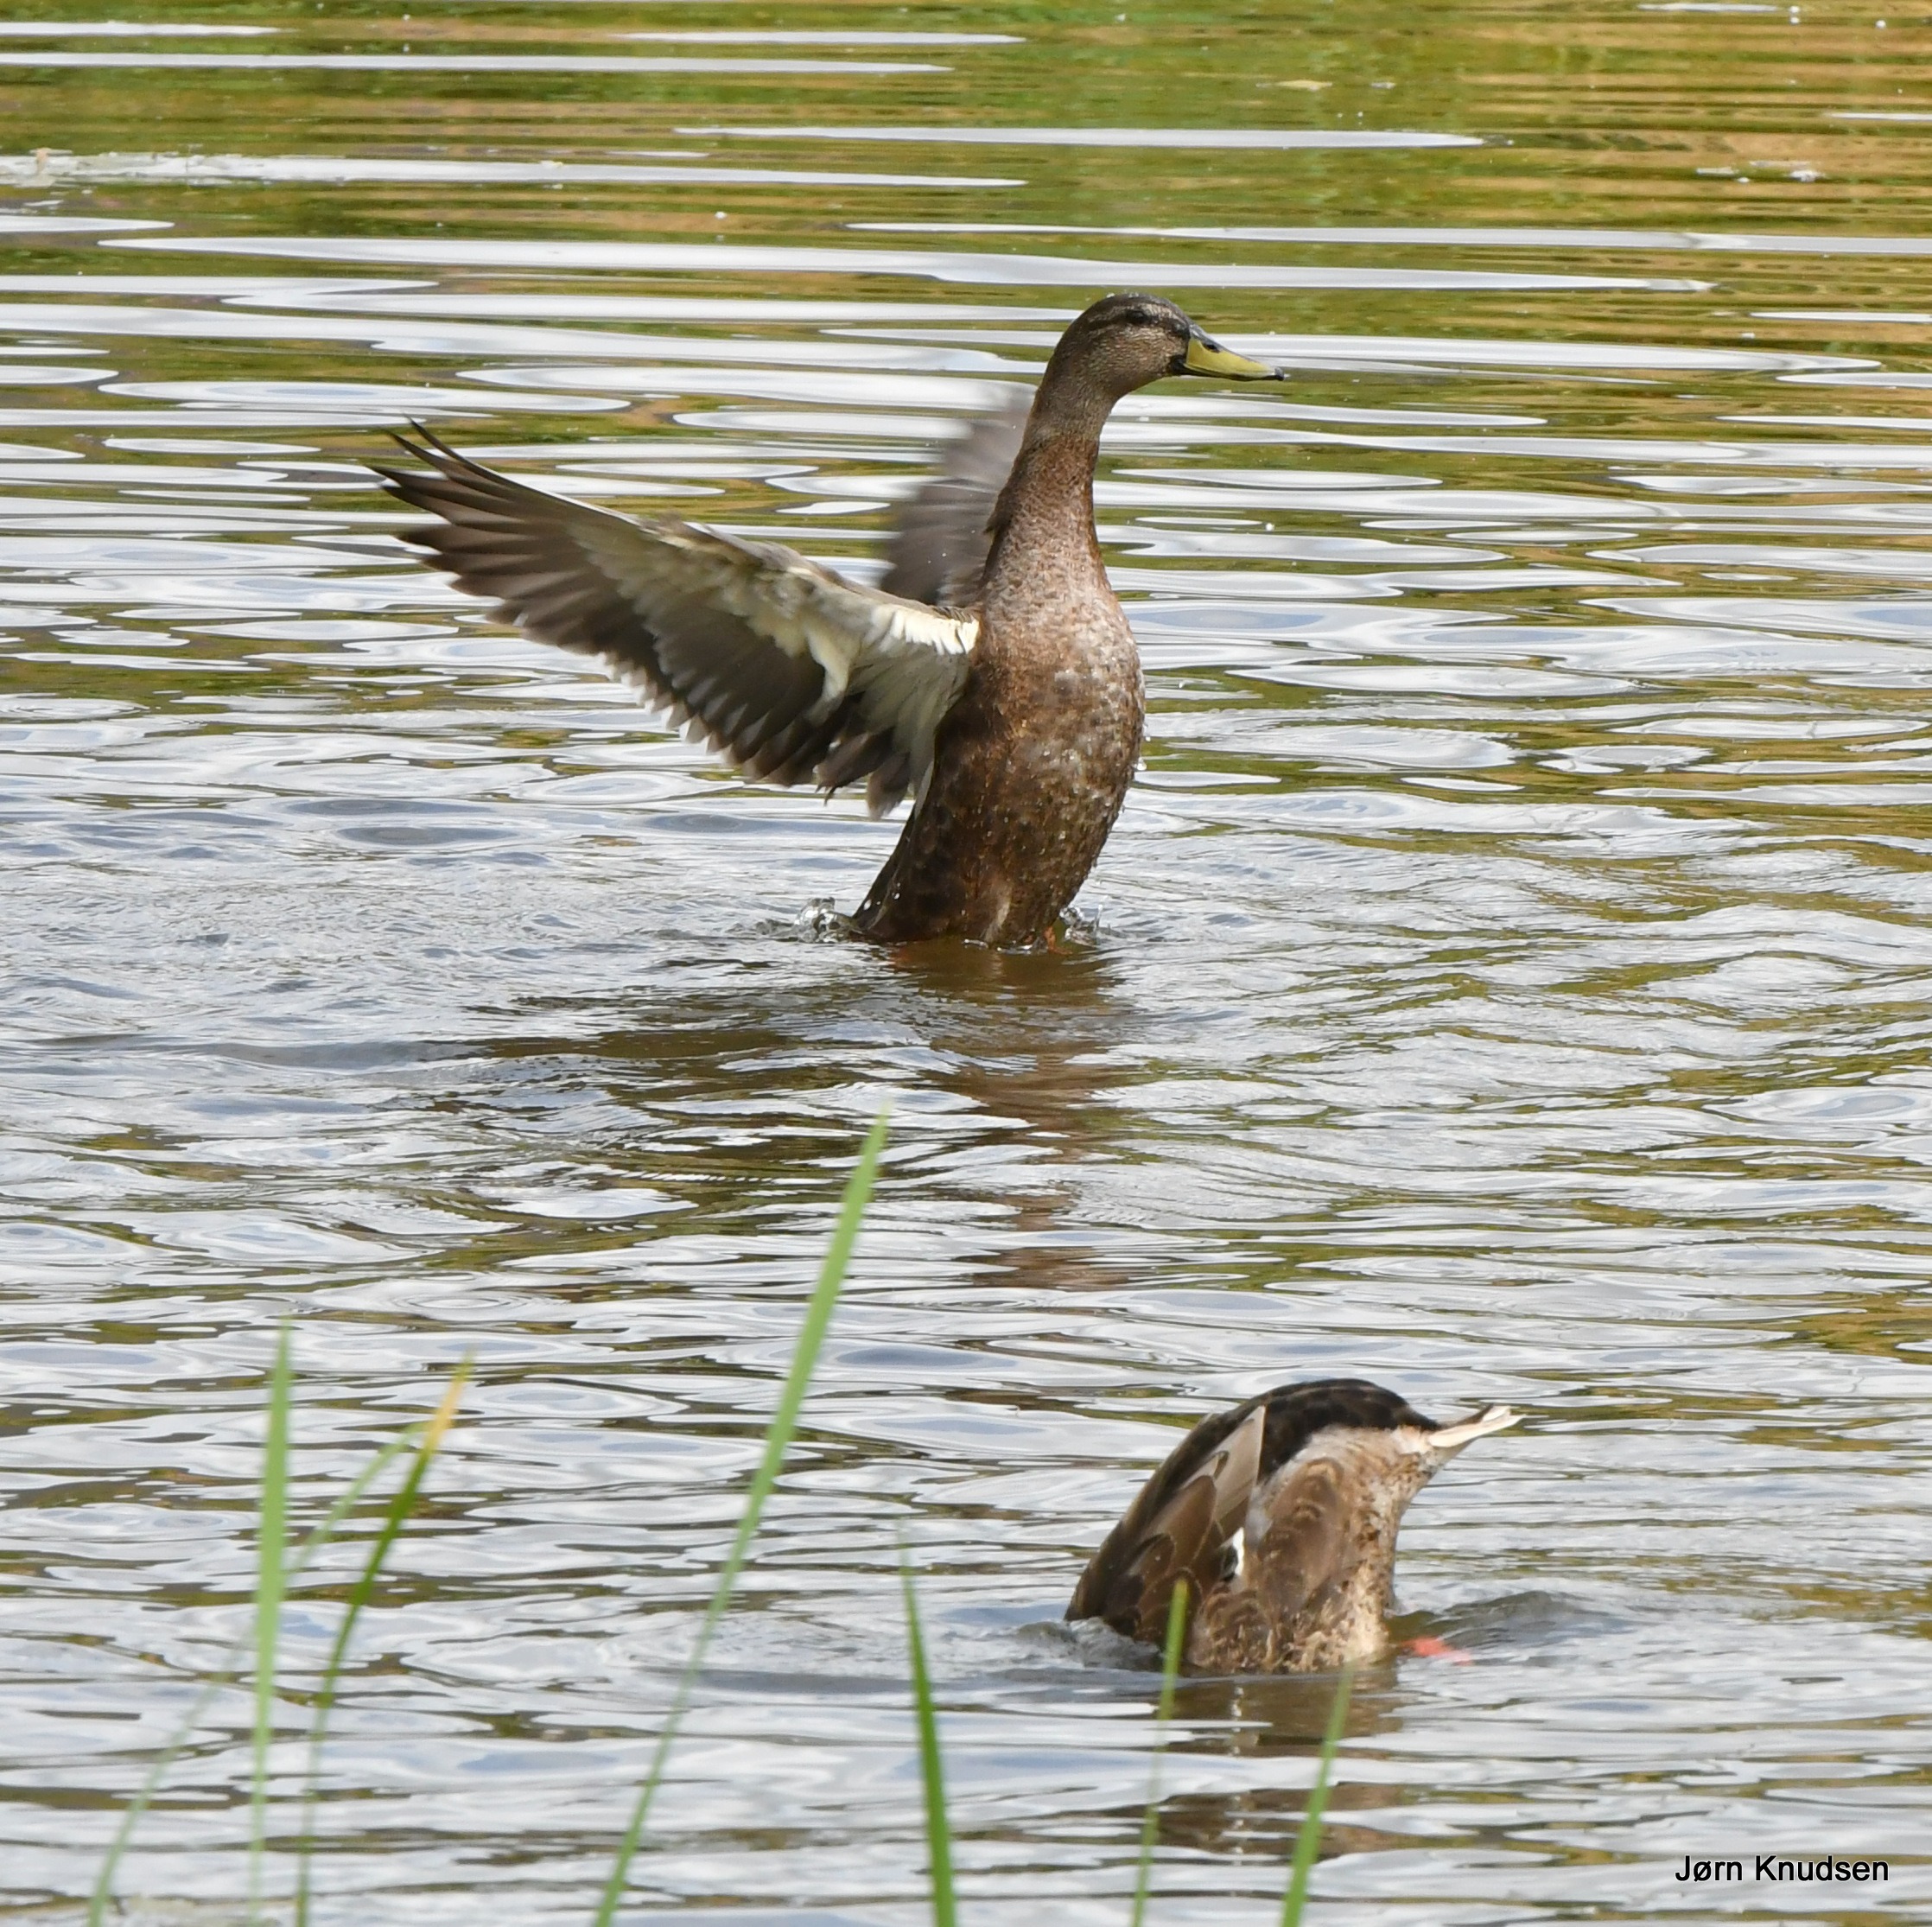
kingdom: Animalia
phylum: Chordata
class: Aves
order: Anseriformes
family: Anatidae
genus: Anas
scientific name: Anas platyrhynchos
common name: Gråand
